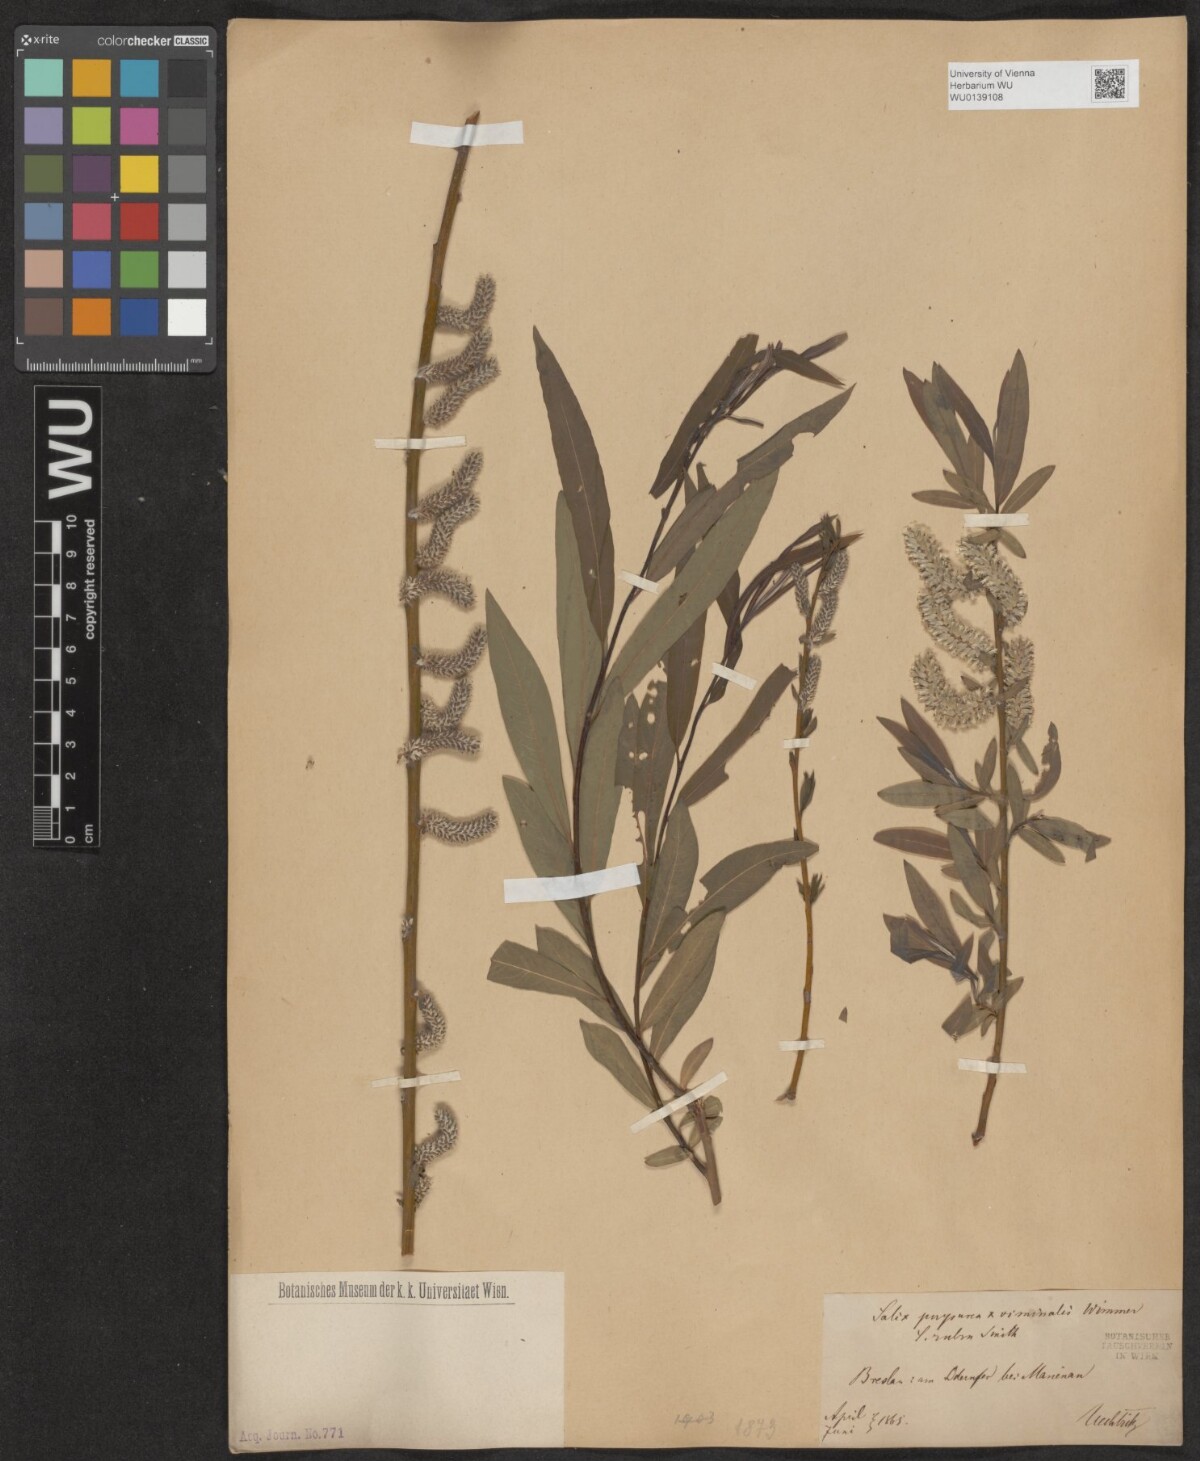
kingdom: Plantae
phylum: Tracheophyta
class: Magnoliopsida
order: Malpighiales
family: Salicaceae
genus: Salix
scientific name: Salix purpurea
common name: Purple willow
